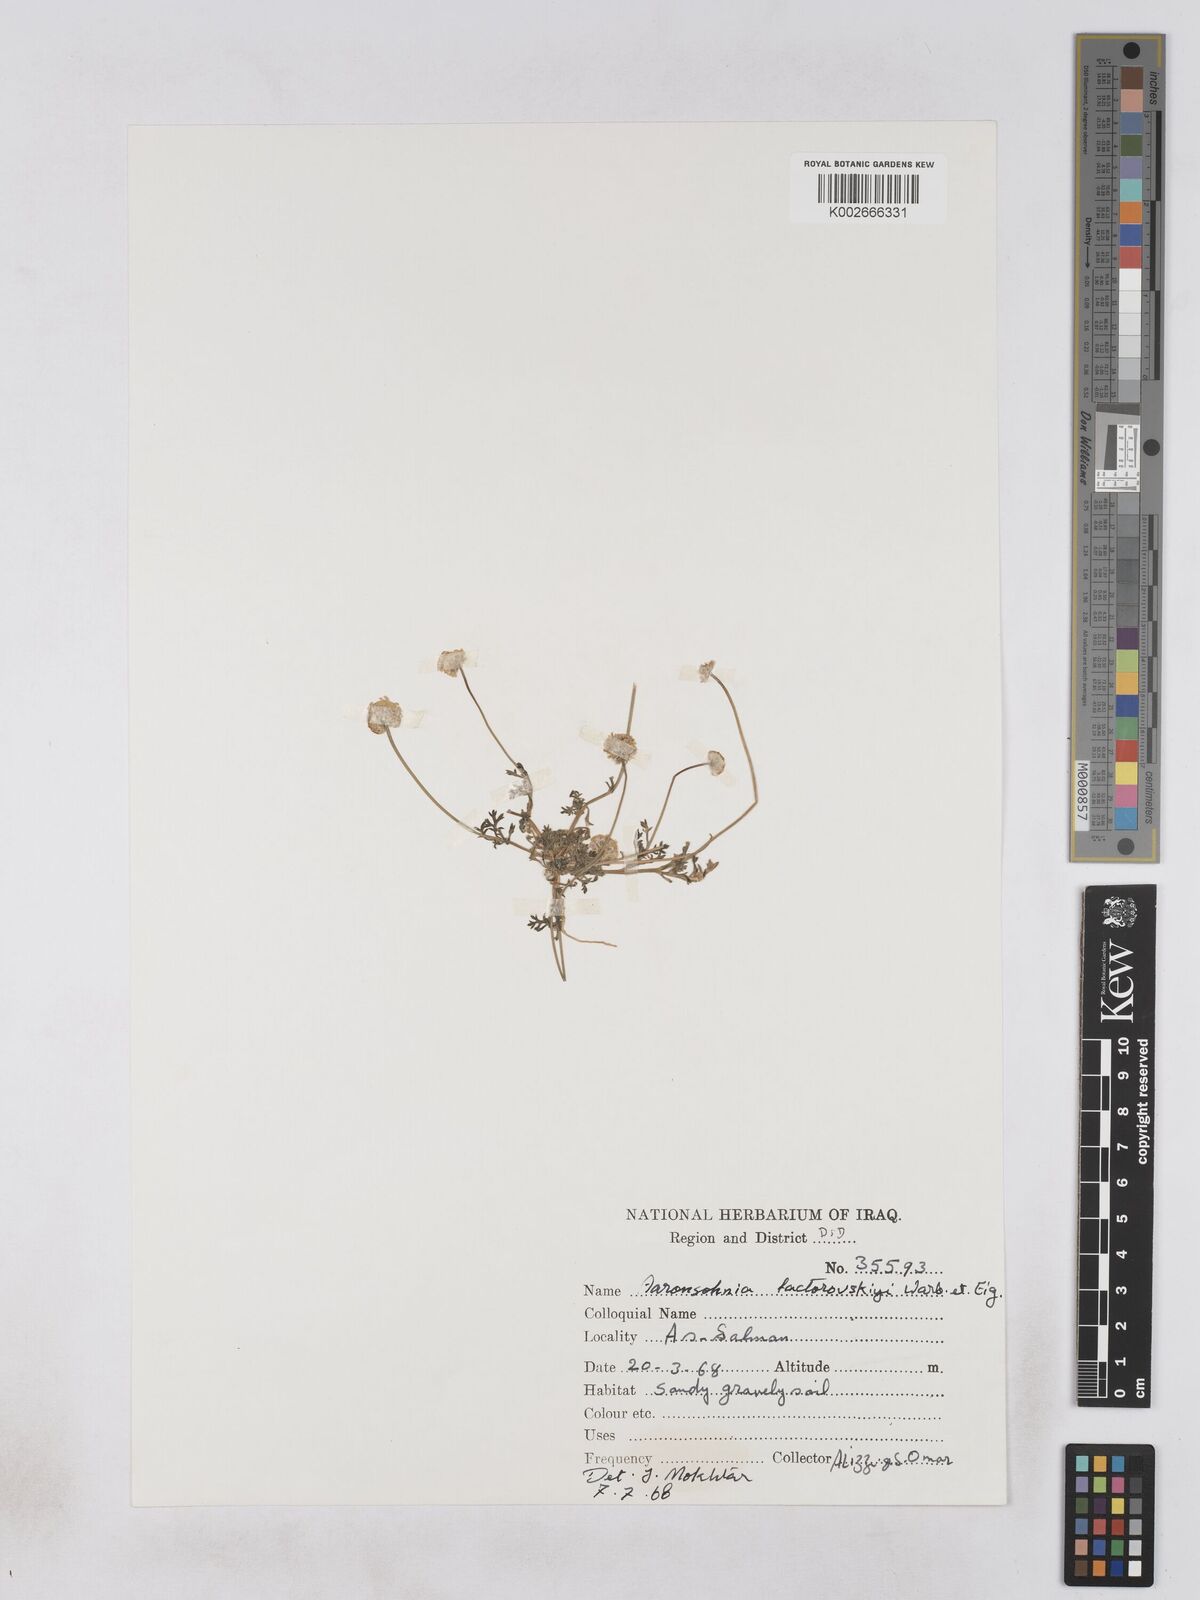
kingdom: Plantae
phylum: Tracheophyta
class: Magnoliopsida
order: Asterales
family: Asteraceae
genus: Otoglyphis
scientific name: Otoglyphis factorovskyi
